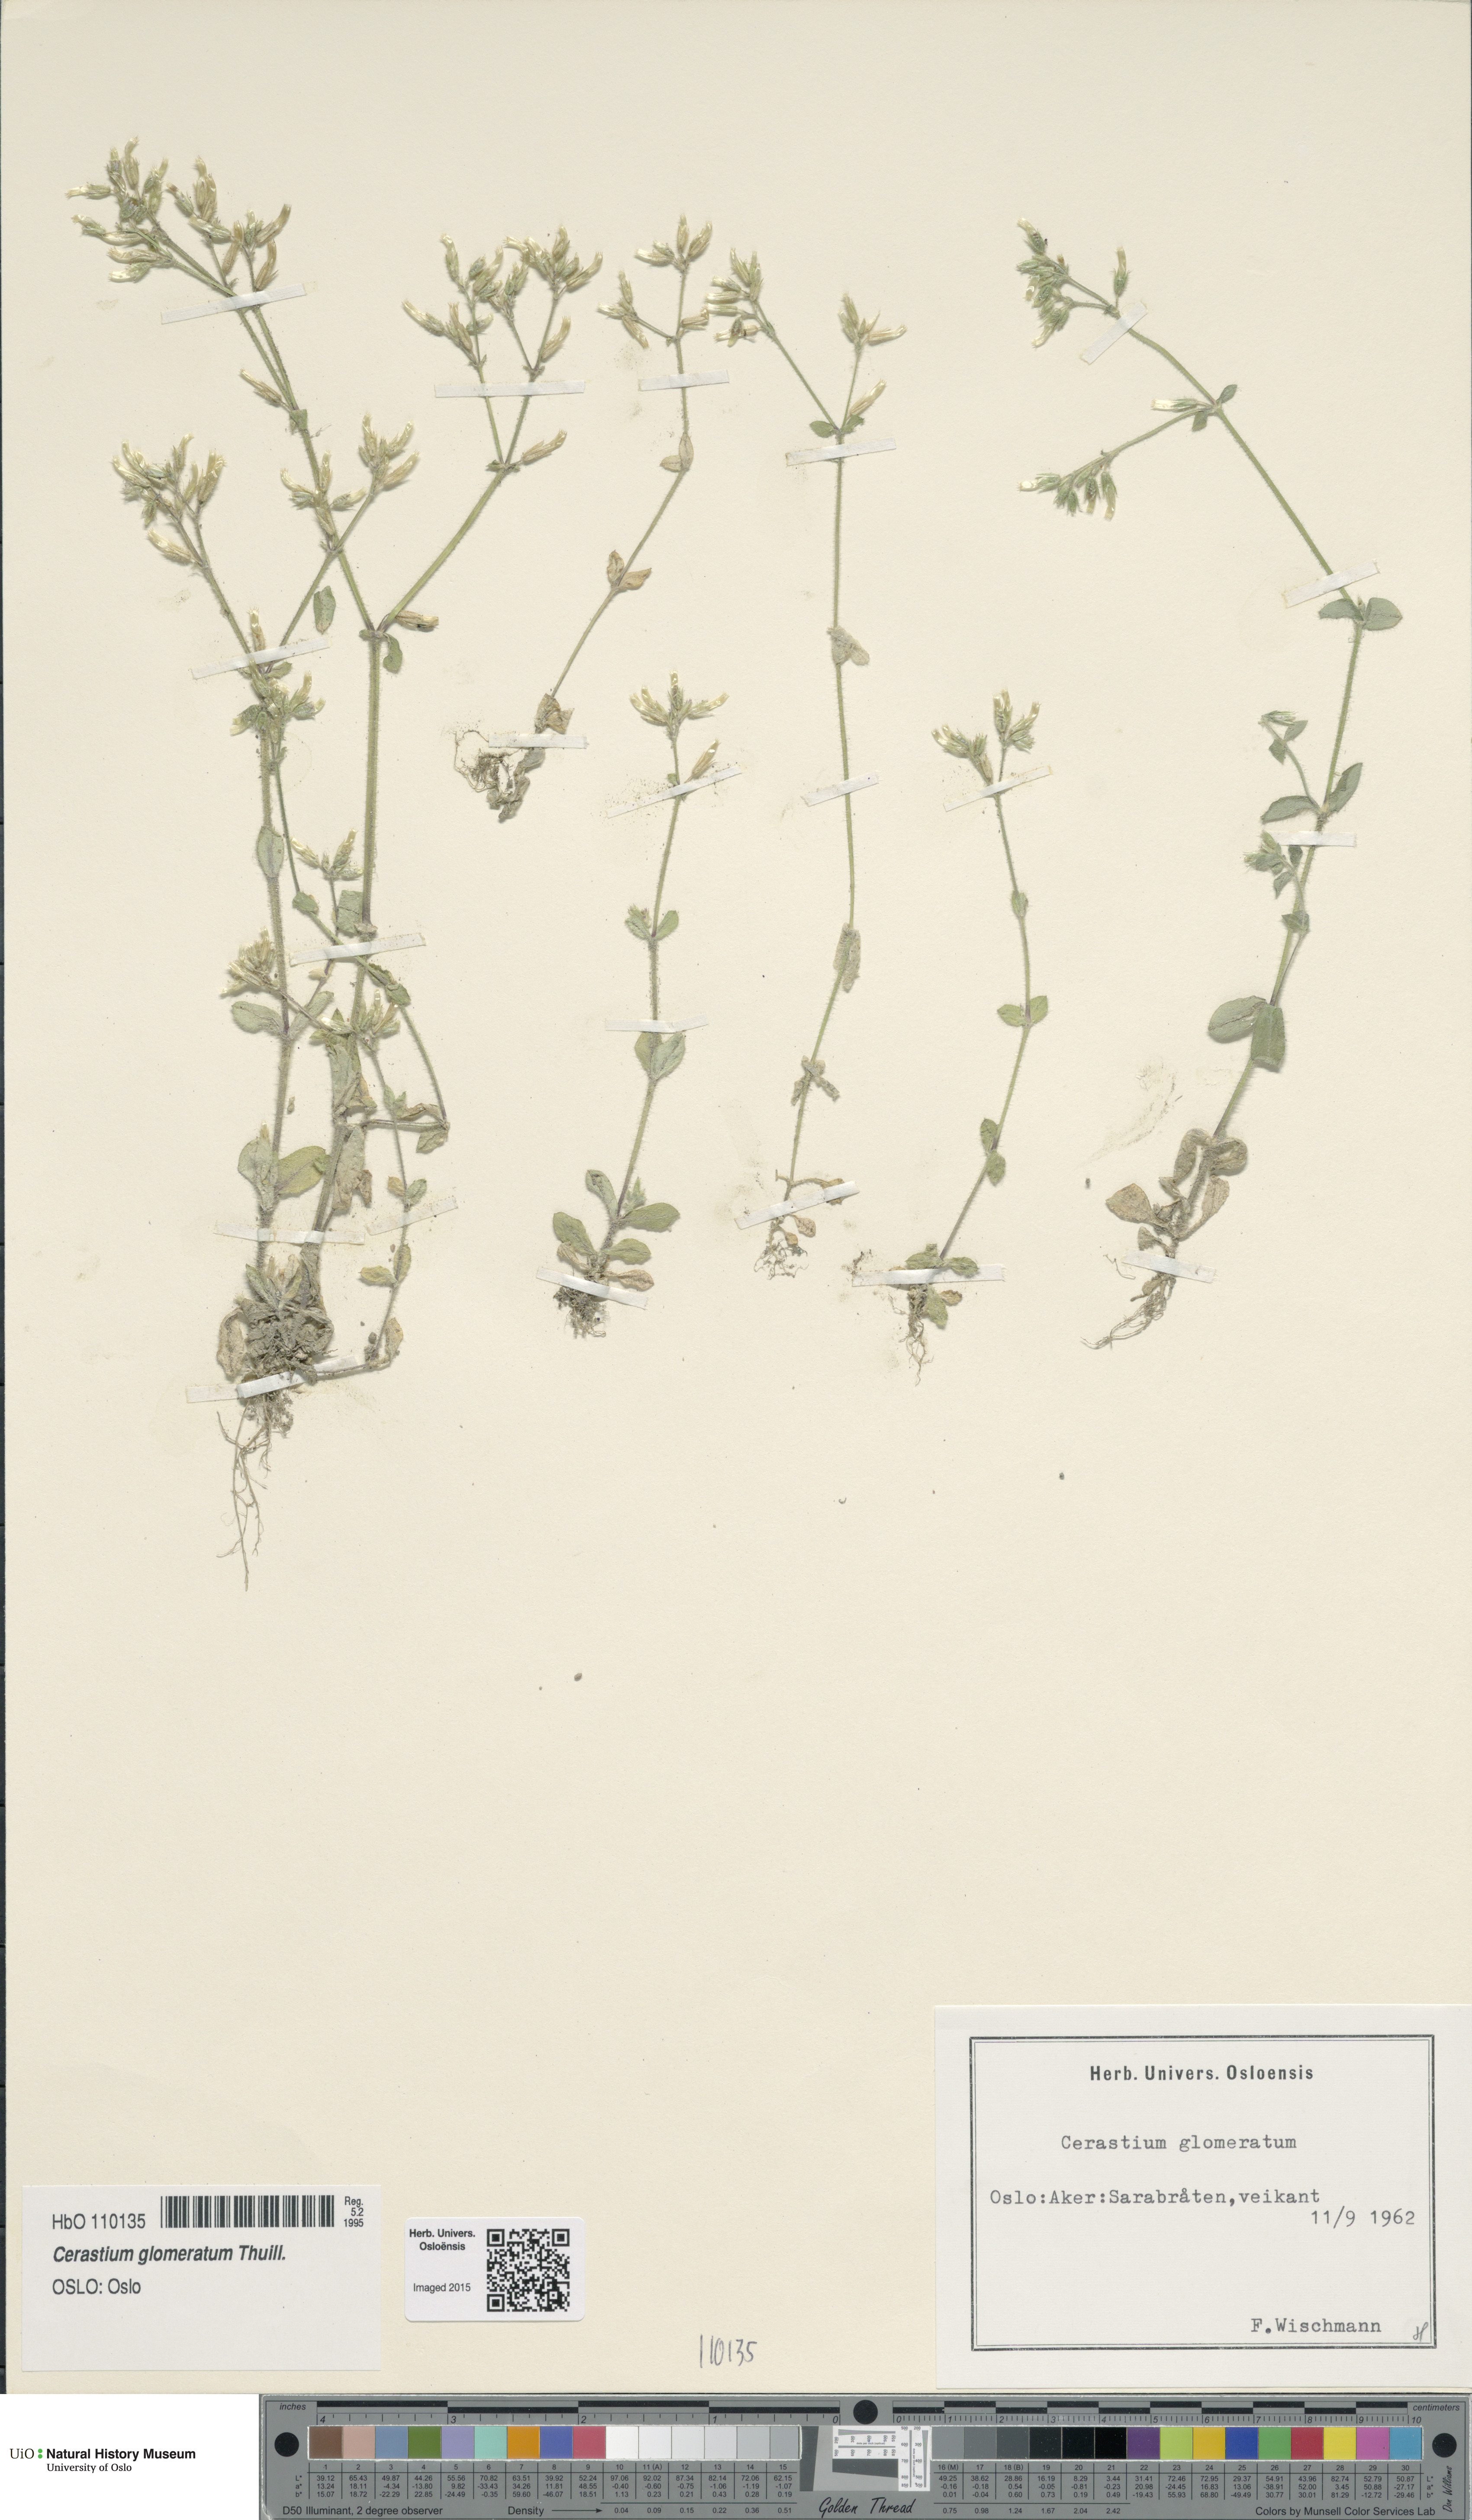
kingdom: Plantae
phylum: Tracheophyta
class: Magnoliopsida
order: Caryophyllales
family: Caryophyllaceae
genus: Cerastium
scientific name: Cerastium glomeratum
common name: Sticky chickweed
